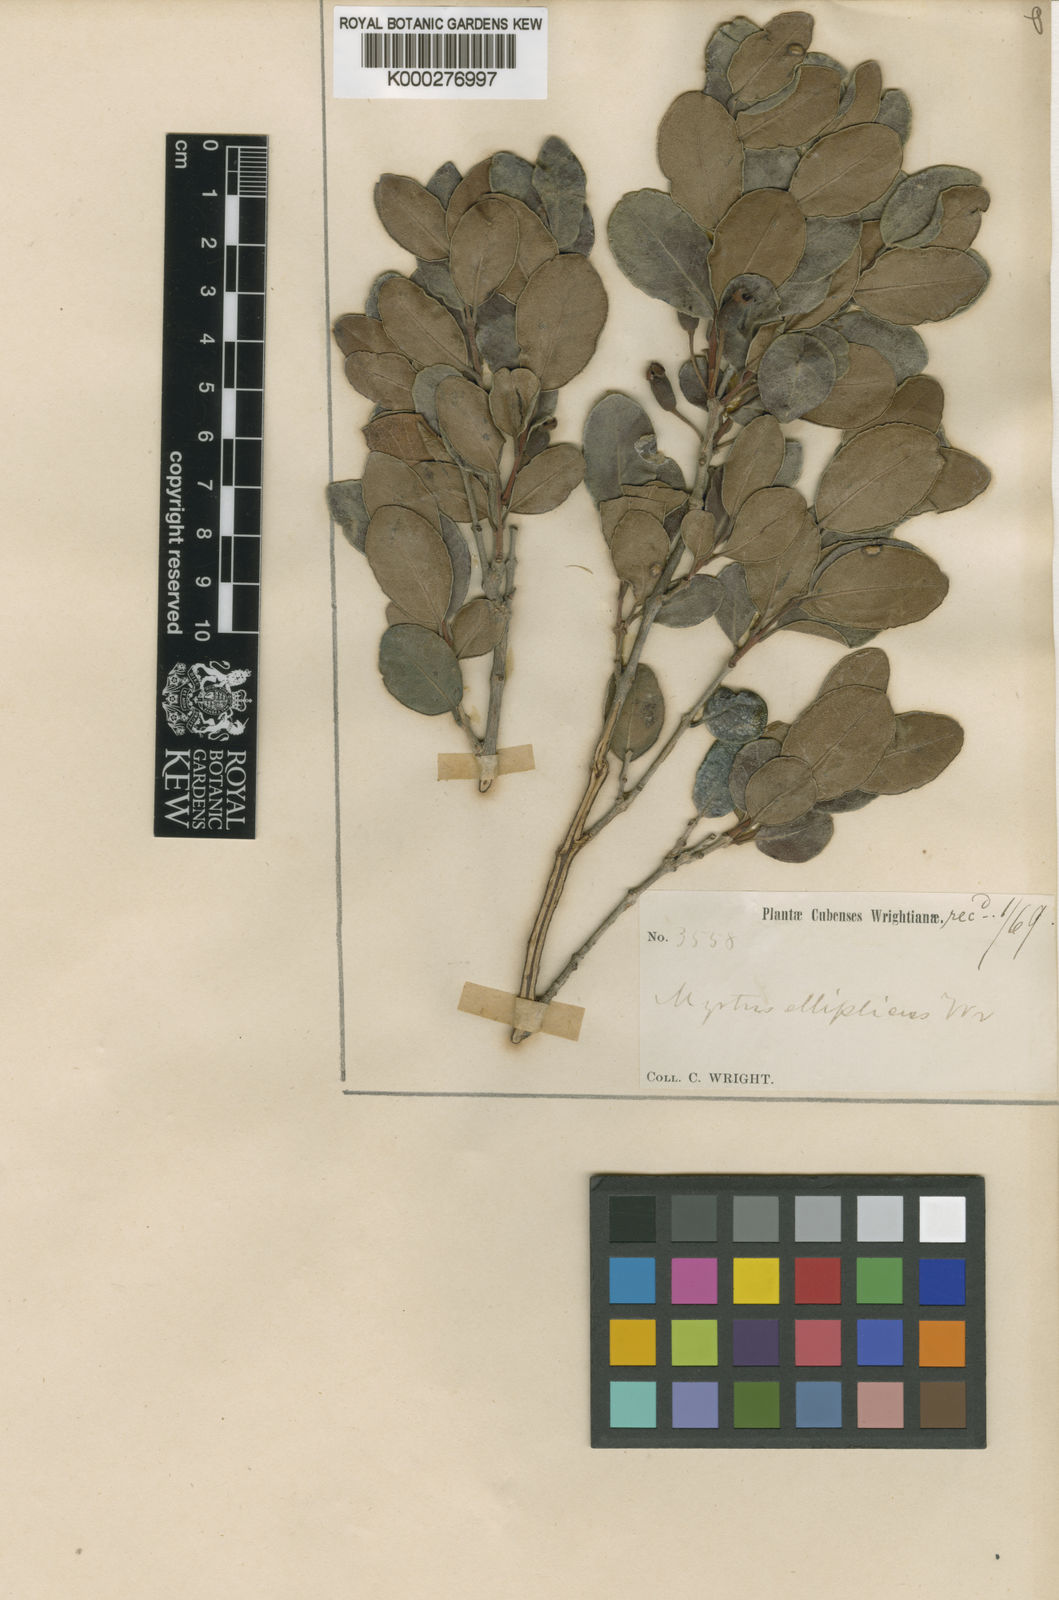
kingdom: Plantae
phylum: Tracheophyta
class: Magnoliopsida
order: Myrtales
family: Myrtaceae
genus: Mosiera
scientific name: Mosiera elliptica
